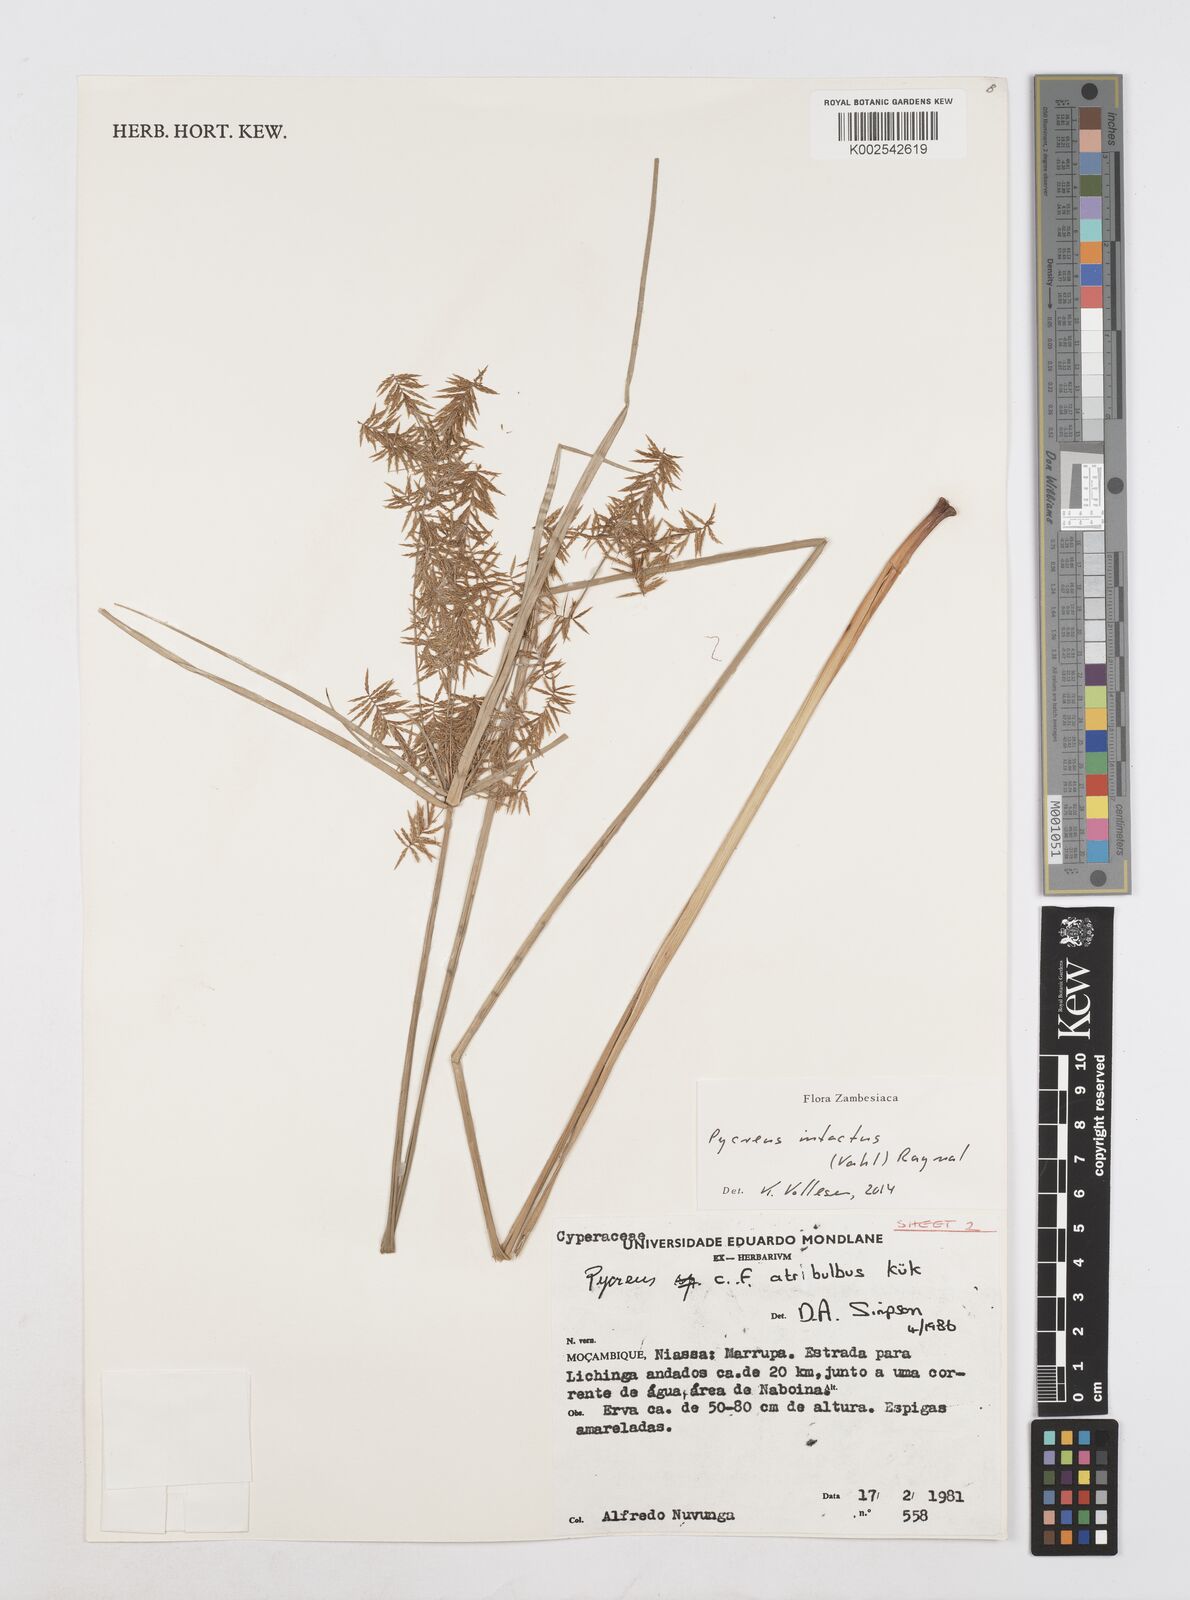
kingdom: Plantae
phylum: Tracheophyta
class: Liliopsida
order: Poales
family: Cyperaceae
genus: Cyperus
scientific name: Cyperus intactus
